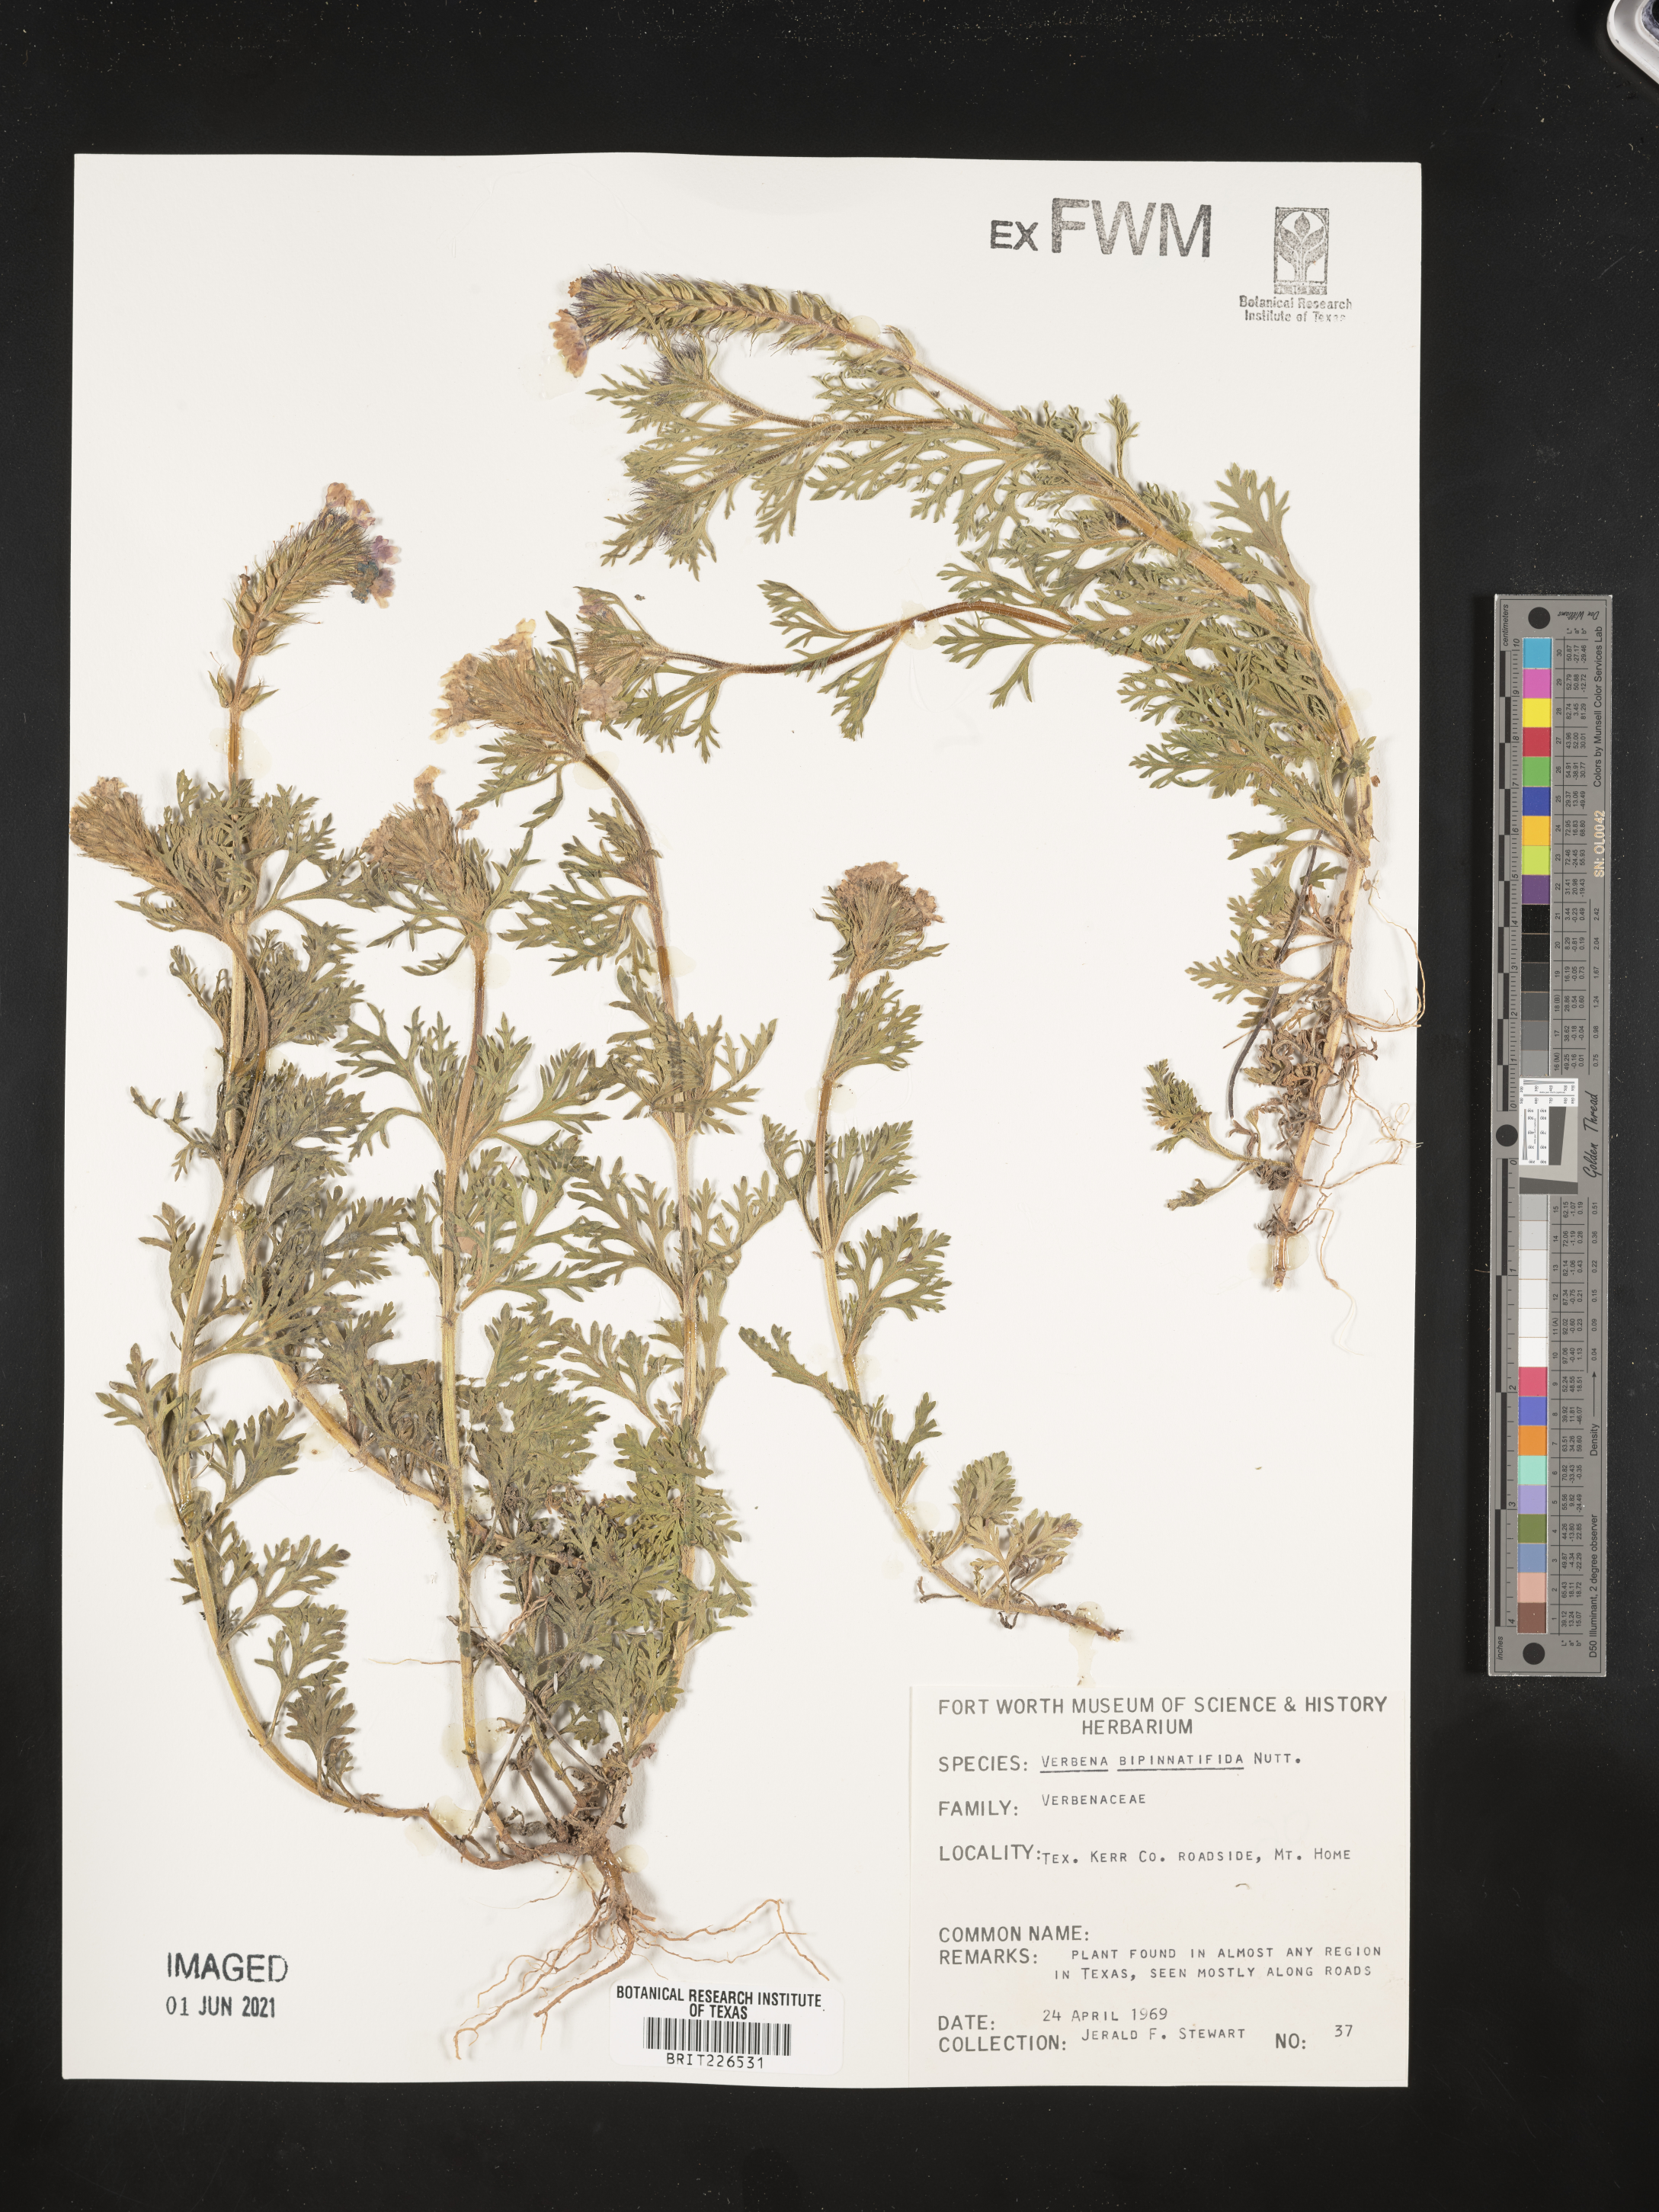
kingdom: Plantae
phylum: Tracheophyta
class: Magnoliopsida
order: Lamiales
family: Verbenaceae
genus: Verbena
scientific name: Verbena bipinnatifida
